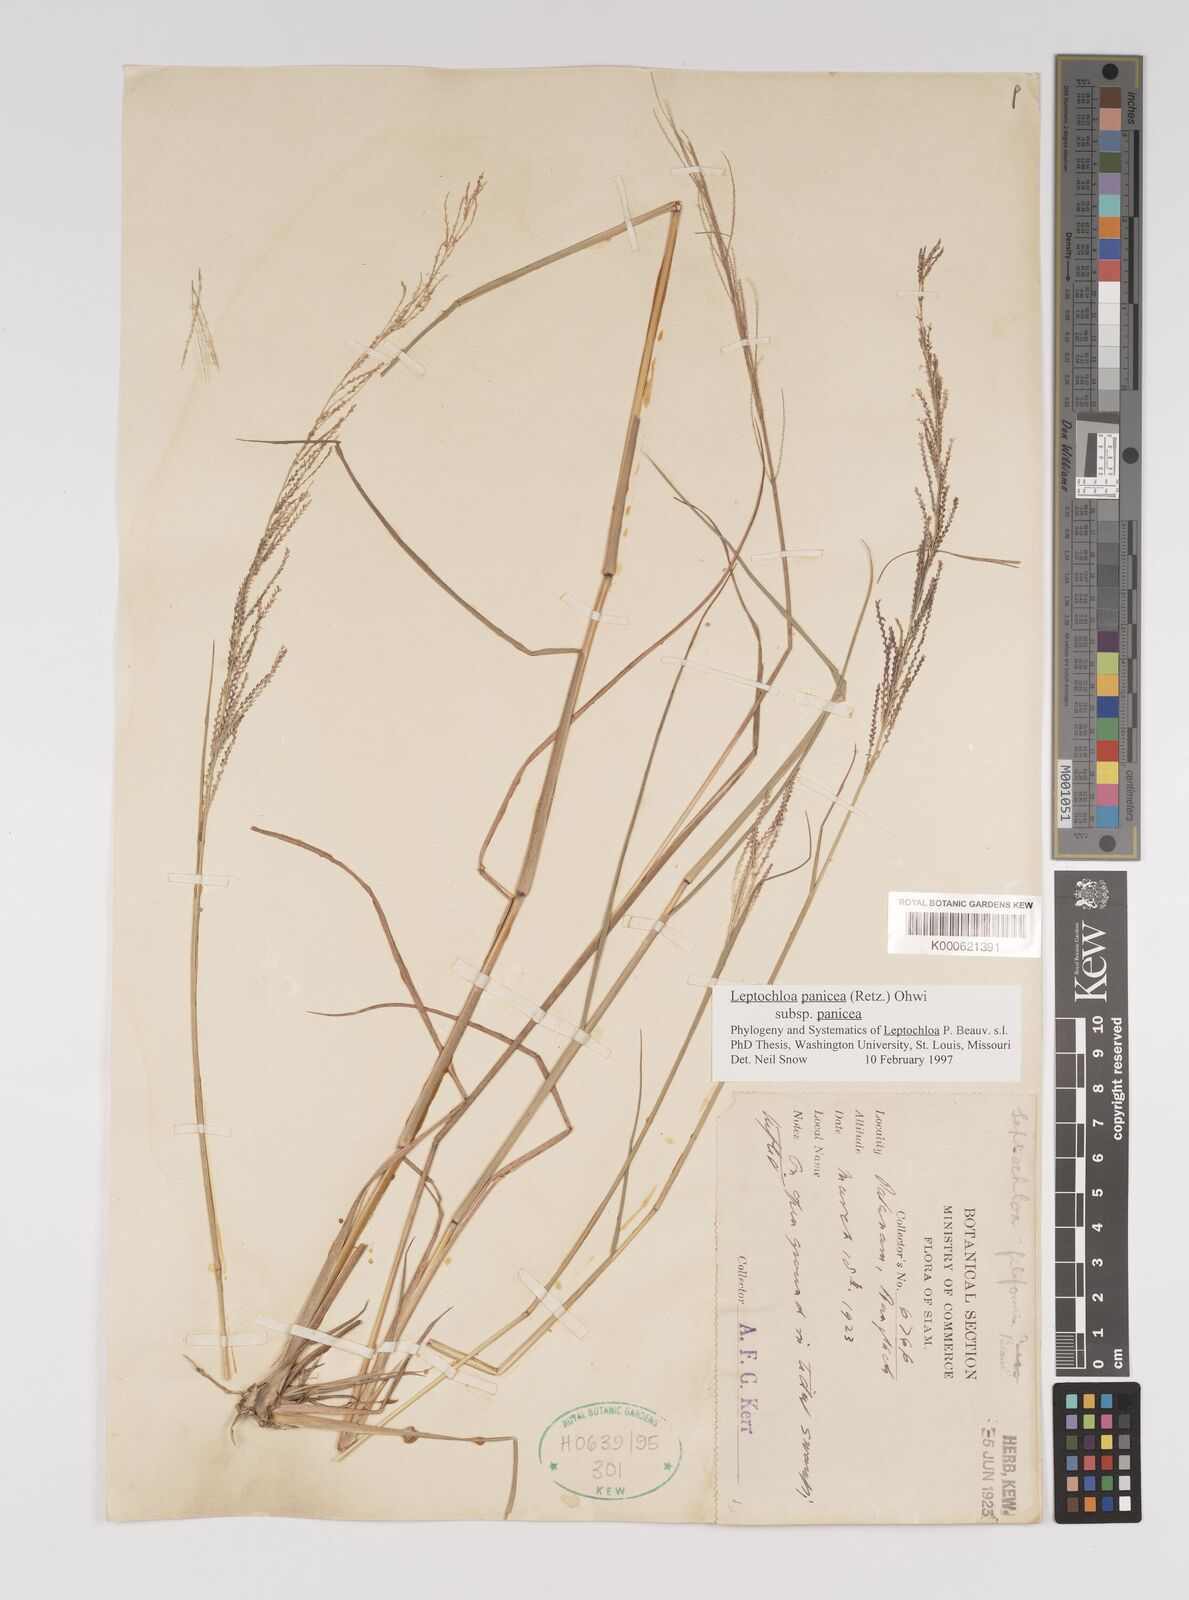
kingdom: Plantae
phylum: Tracheophyta
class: Liliopsida
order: Poales
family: Poaceae
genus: Leptochloa
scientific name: Leptochloa panicea
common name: Mucronate sprangletop
